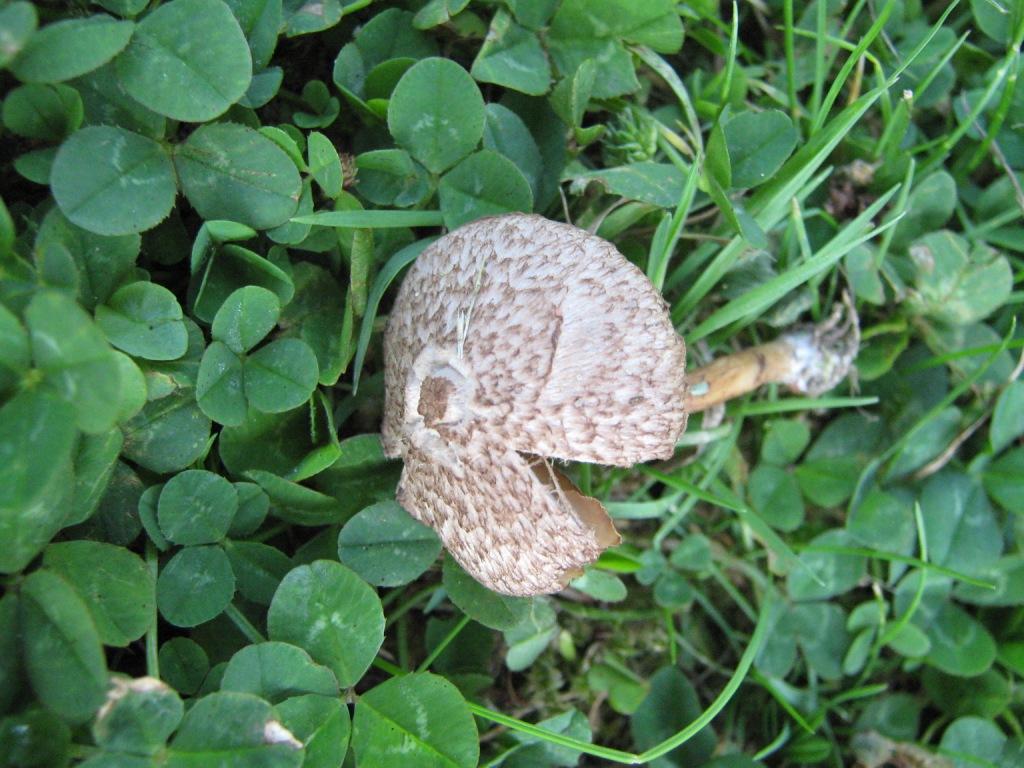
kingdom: Fungi
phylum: Basidiomycota
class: Agaricomycetes
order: Agaricales
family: Inocybaceae
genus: Inocybe
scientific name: Inocybe cincinnata
